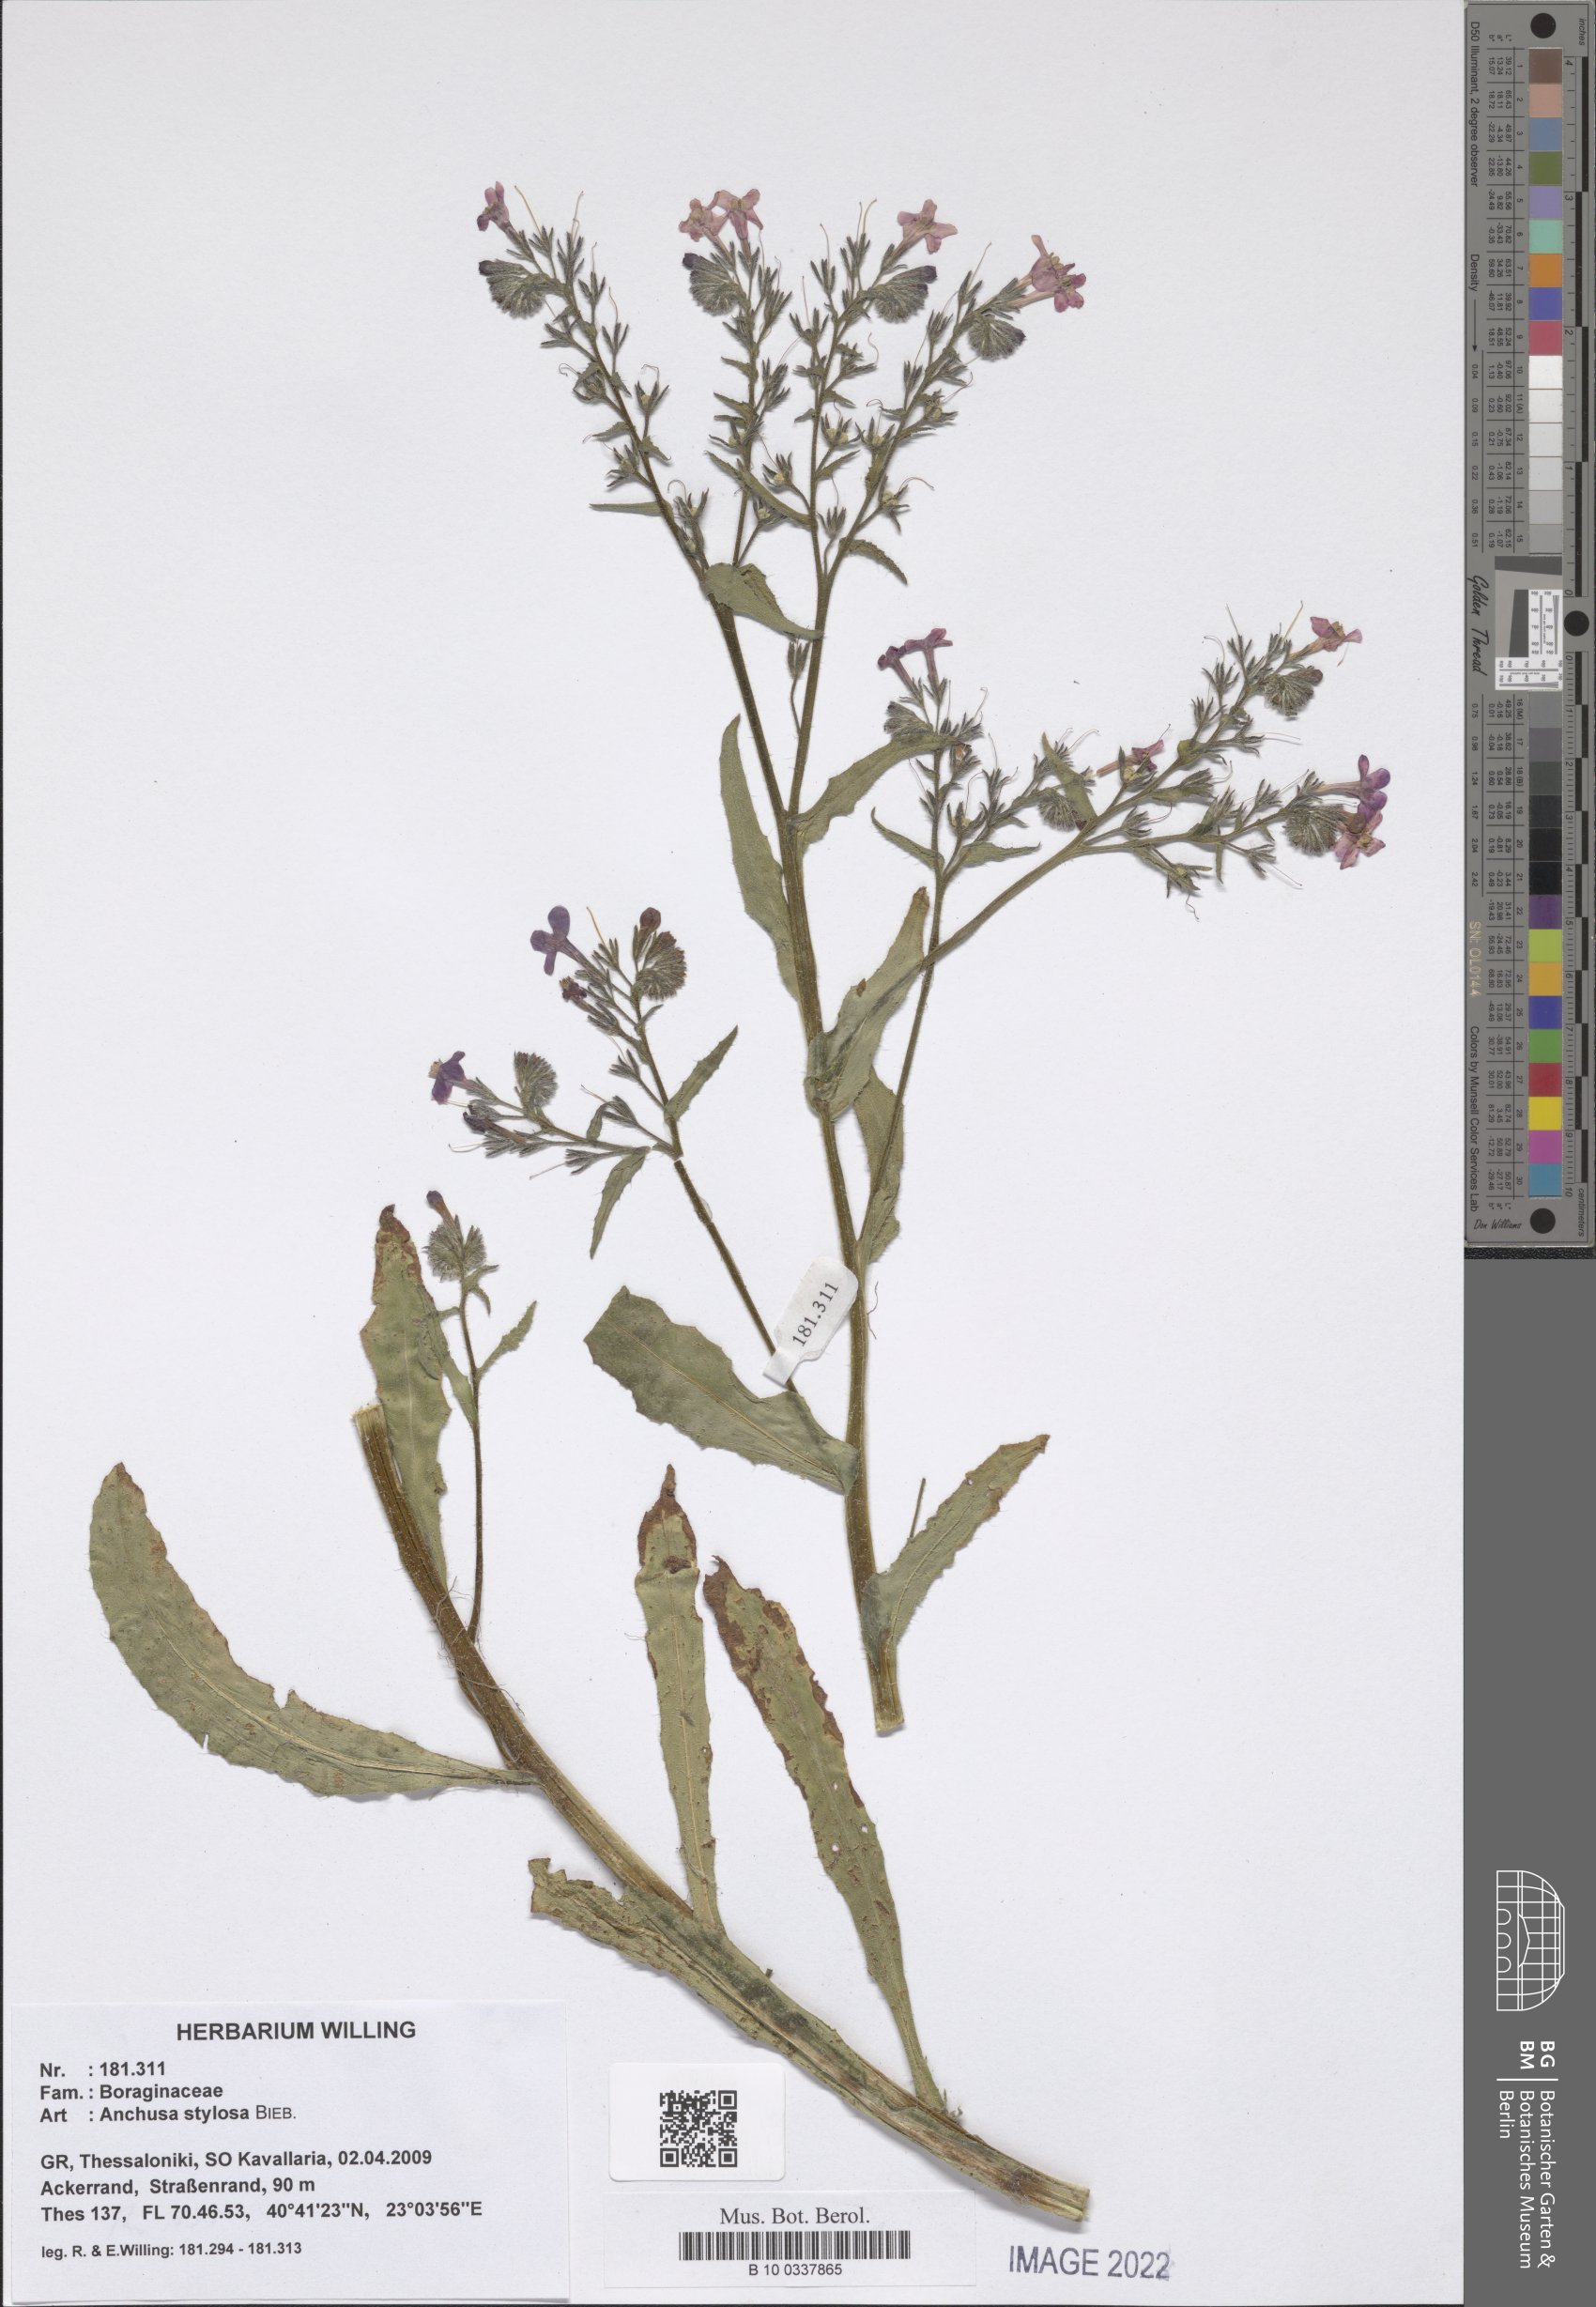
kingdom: Plantae
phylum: Tracheophyta
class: Magnoliopsida
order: Boraginales
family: Boraginaceae
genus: Anchusa
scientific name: Anchusa stylosa
